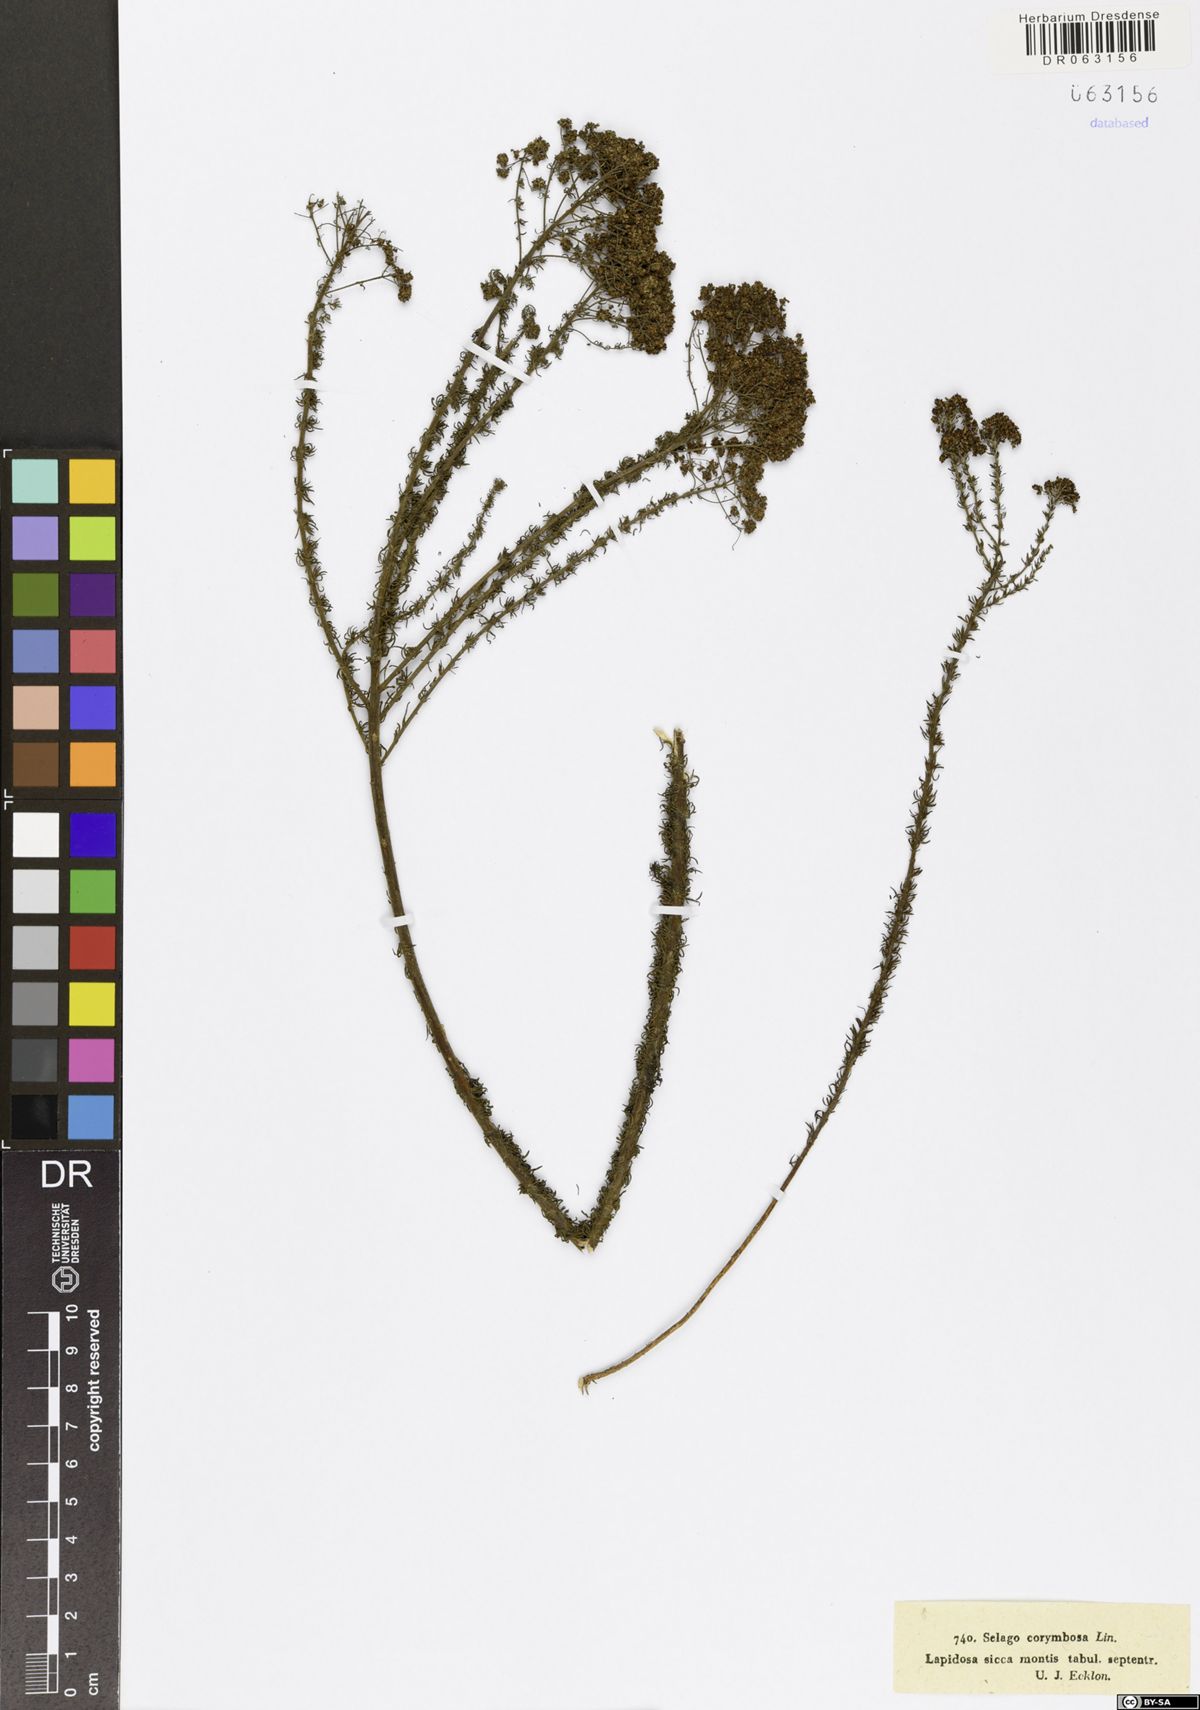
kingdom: Plantae
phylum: Tracheophyta
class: Magnoliopsida
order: Lamiales
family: Scrophulariaceae
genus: Selago
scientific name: Selago corymbosa
